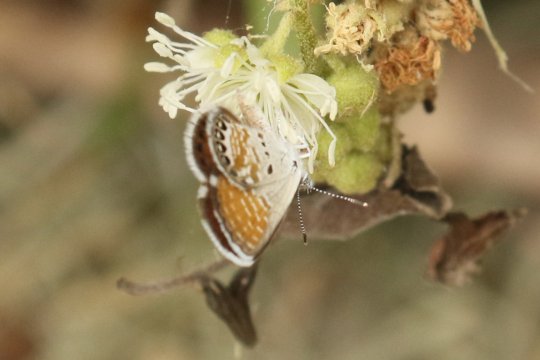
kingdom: Animalia
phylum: Arthropoda
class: Insecta
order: Lepidoptera
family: Lycaenidae
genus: Brephidium
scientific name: Brephidium exilis
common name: Western Pygmy-Blue
